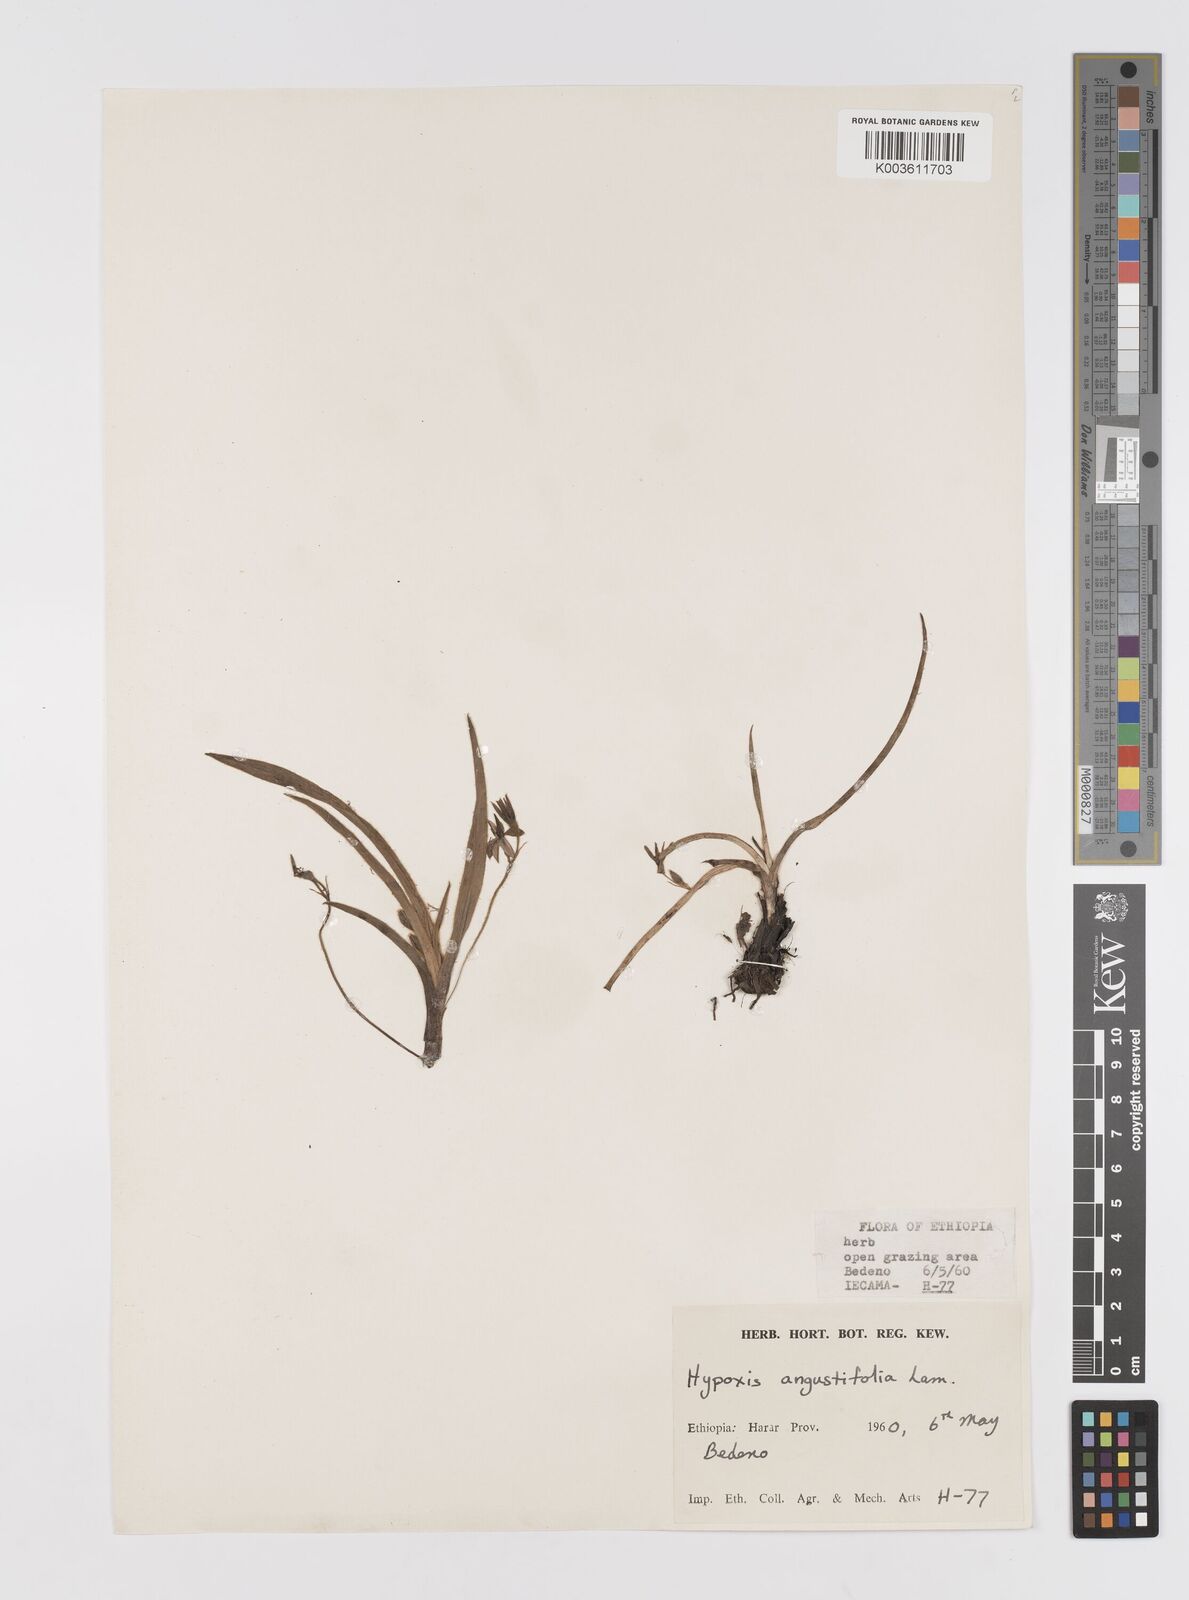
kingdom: Plantae
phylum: Tracheophyta
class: Liliopsida
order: Asparagales
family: Hypoxidaceae
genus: Hypoxis
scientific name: Hypoxis
